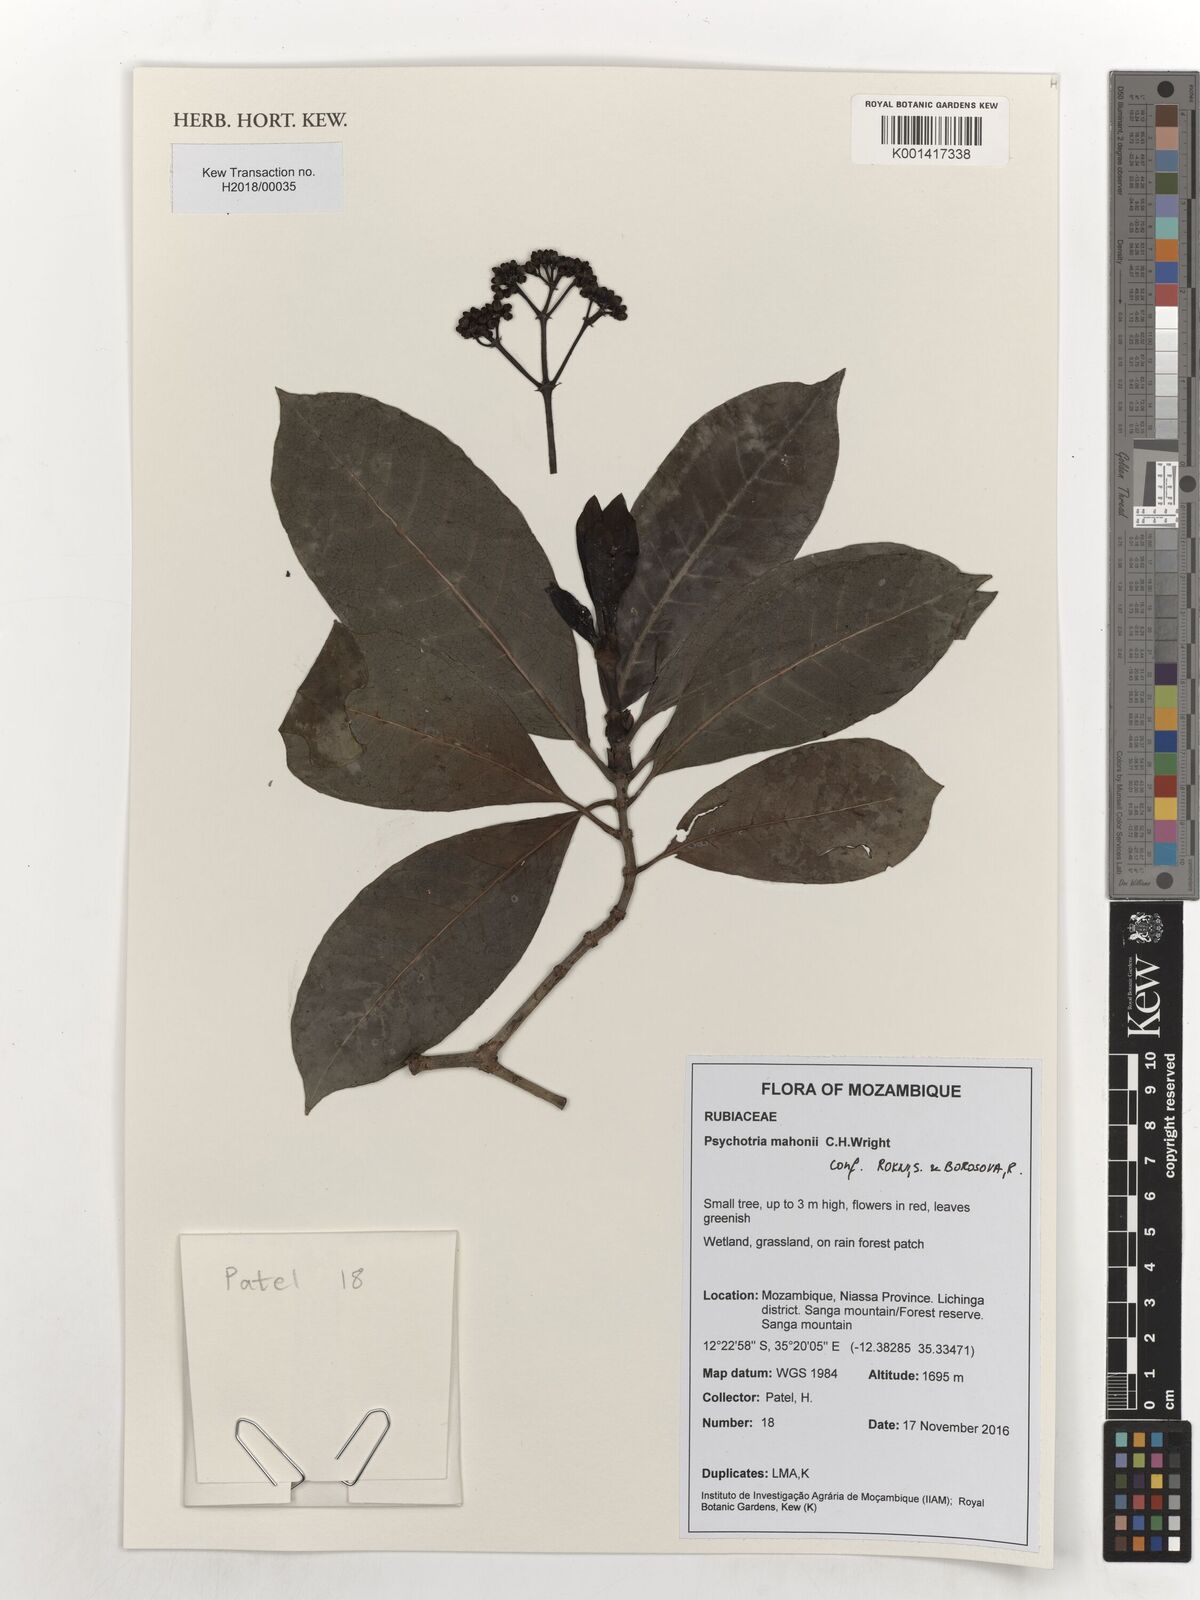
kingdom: Plantae
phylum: Tracheophyta
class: Magnoliopsida
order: Gentianales
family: Rubiaceae
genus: Psychotria
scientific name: Psychotria mahonii
